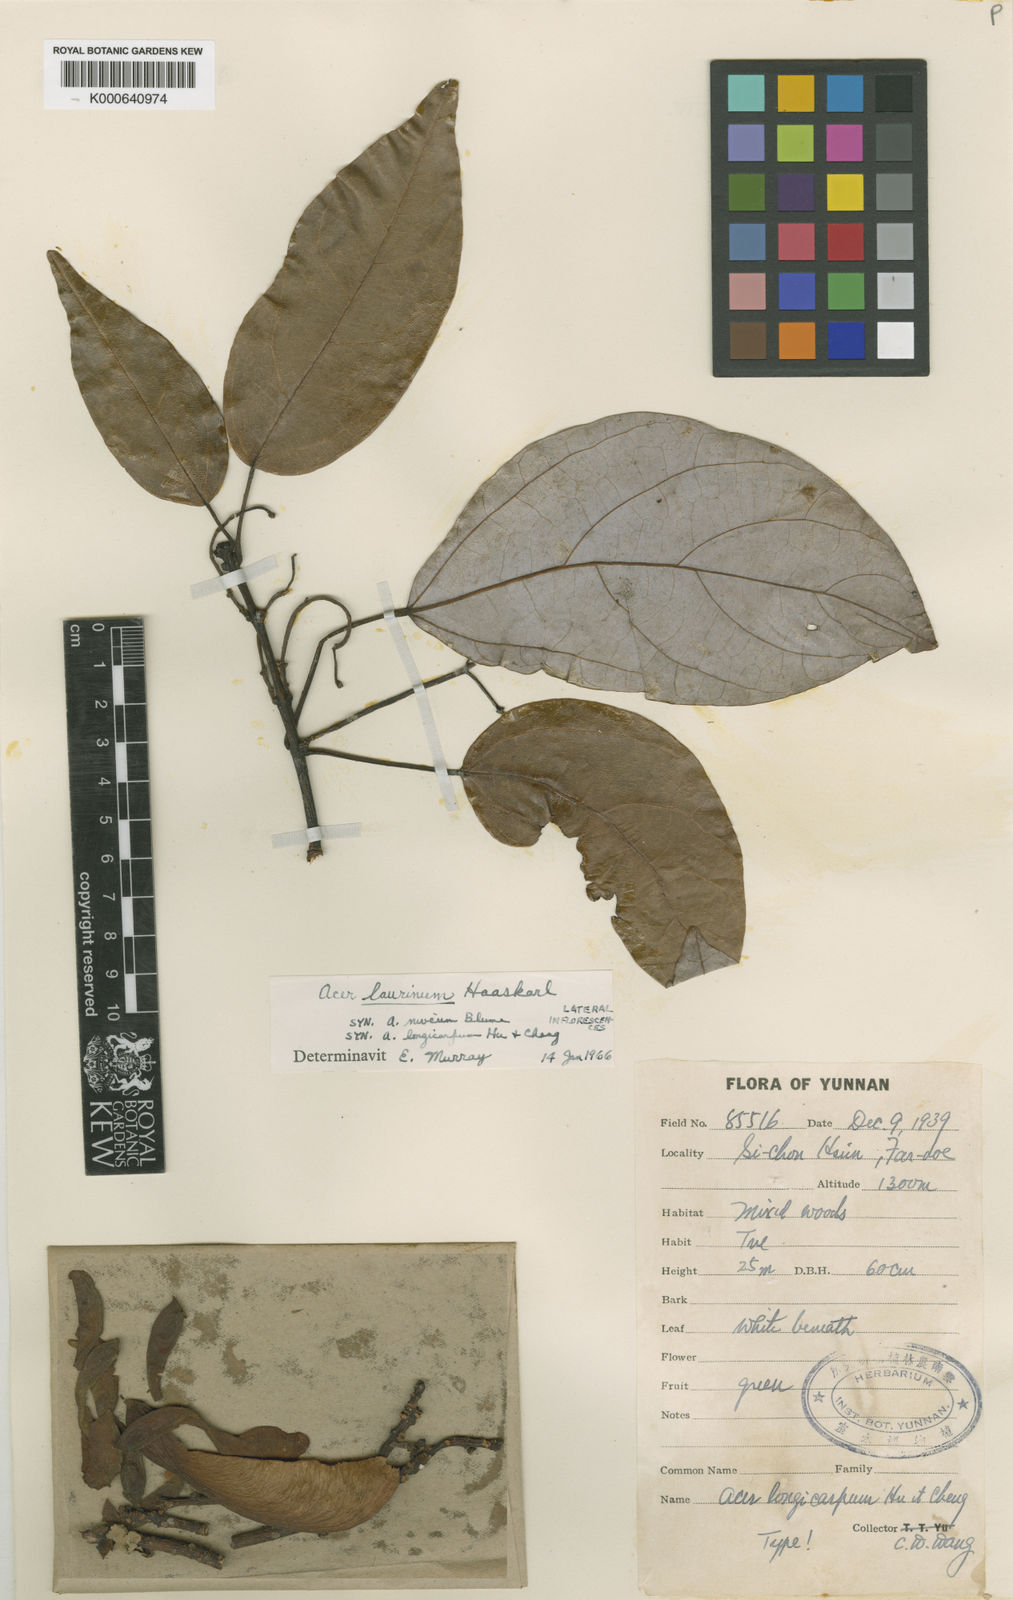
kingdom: Plantae
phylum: Tracheophyta
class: Magnoliopsida
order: Sapindales
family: Sapindaceae
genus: Acer
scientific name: Acer laurinum
